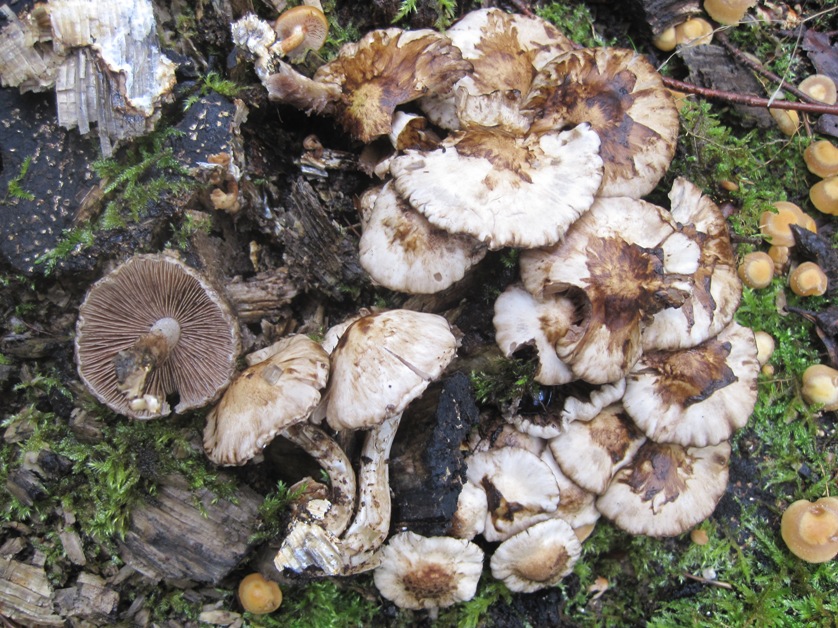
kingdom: Fungi
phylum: Basidiomycota
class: Agaricomycetes
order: Agaricales
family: Psathyrellaceae
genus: Psathyrella
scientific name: Psathyrella cotonea
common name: skællet mørkhat
